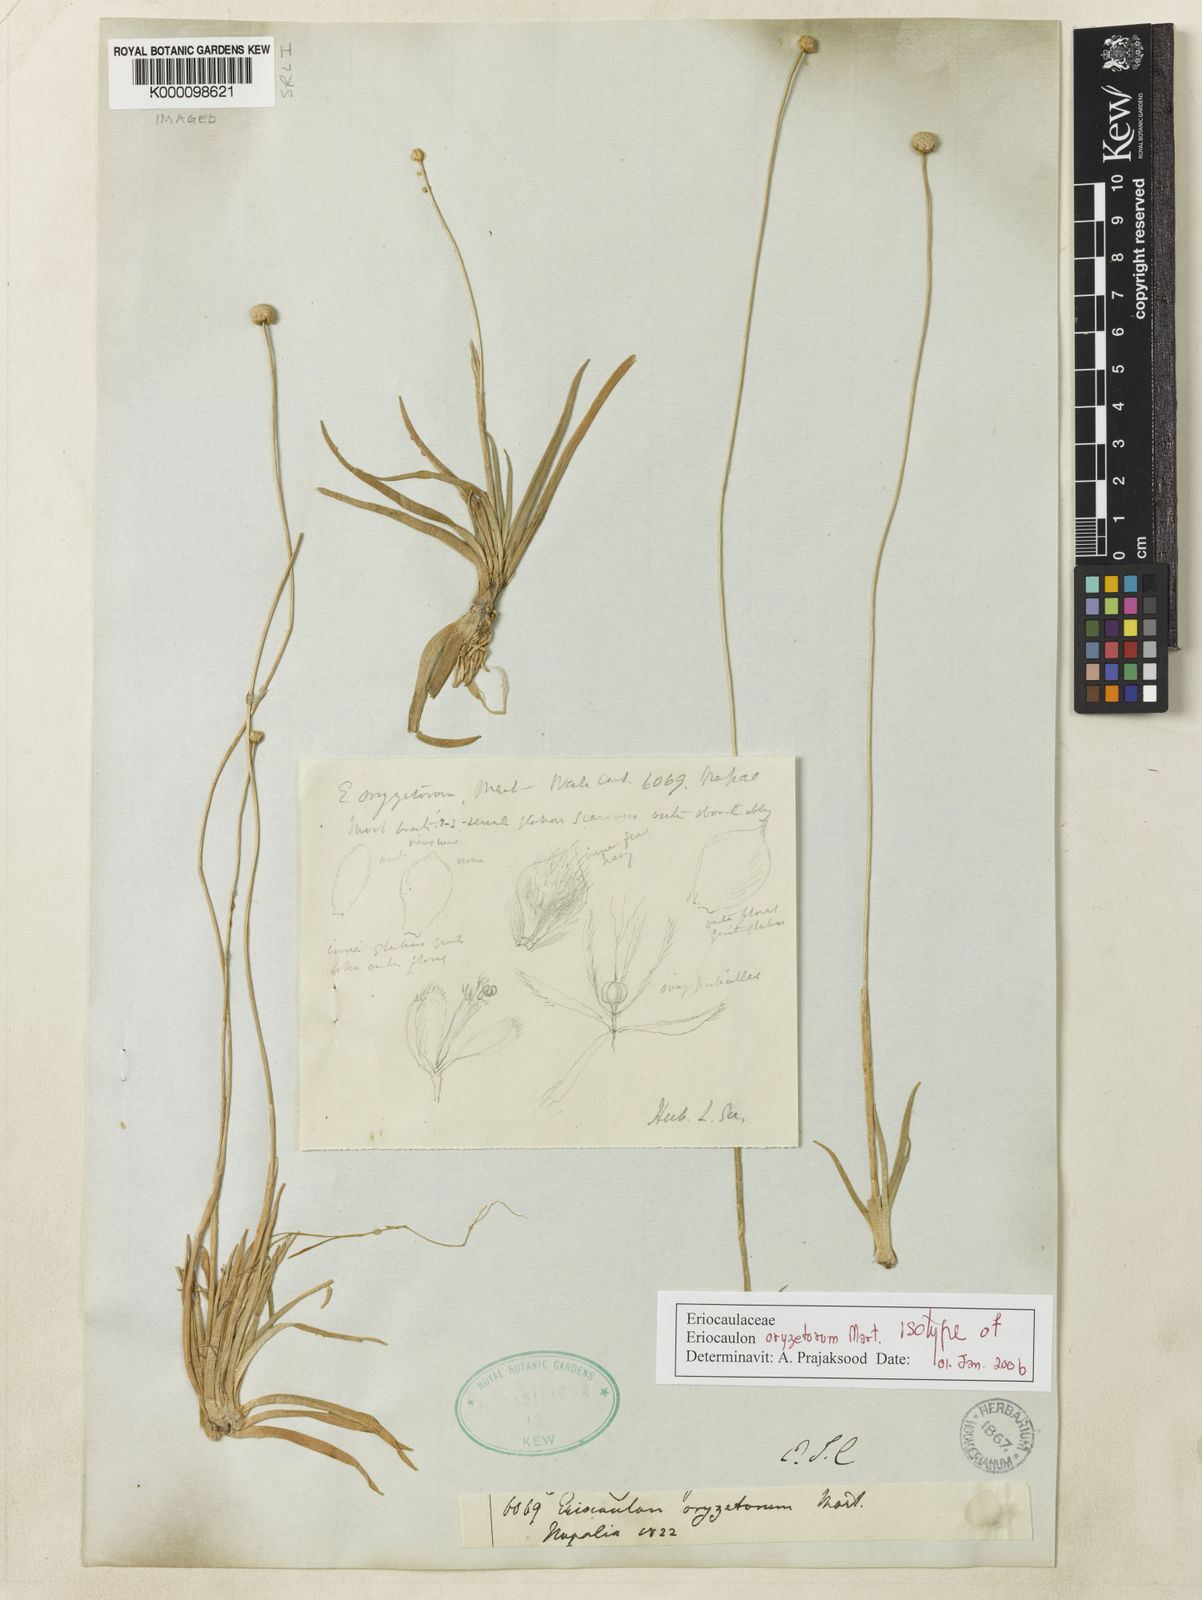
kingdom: Plantae
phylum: Tracheophyta
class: Liliopsida
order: Poales
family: Eriocaulaceae
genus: Eriocaulon
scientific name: Eriocaulon oryzetorum
